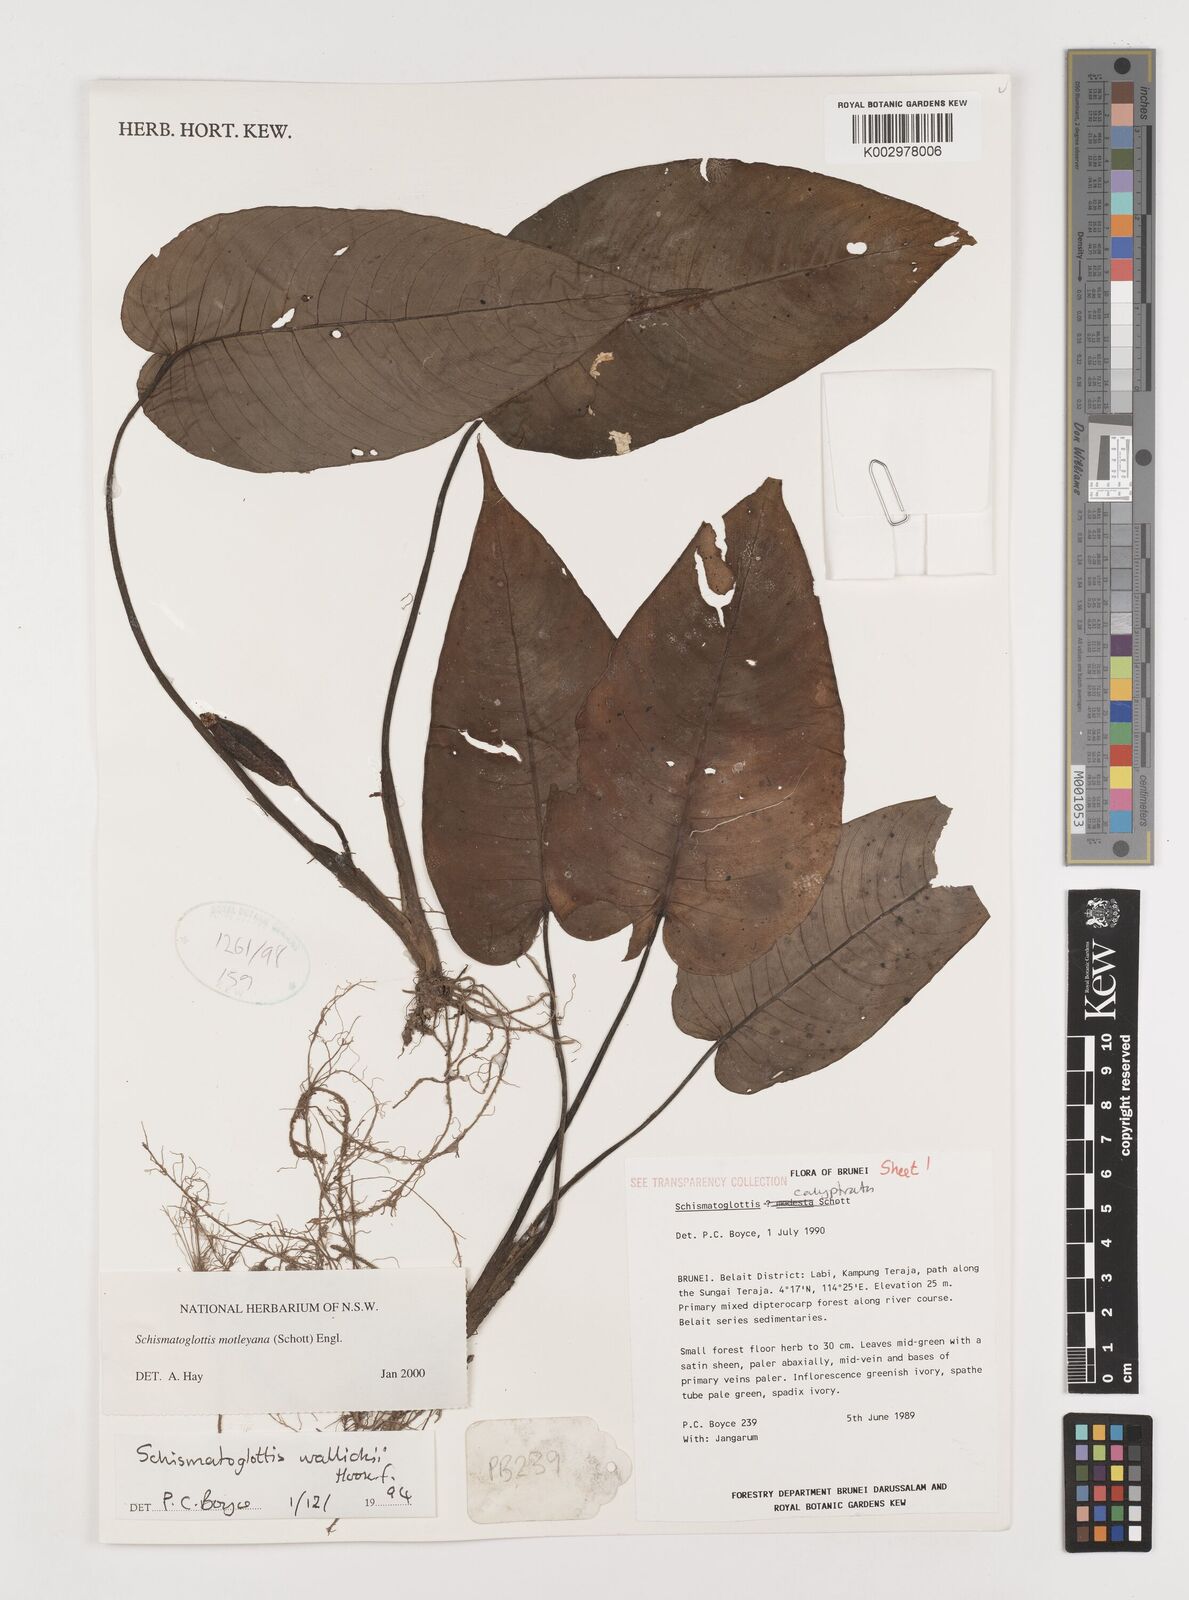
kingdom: Plantae
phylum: Tracheophyta
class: Liliopsida
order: Alismatales
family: Araceae
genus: Schismatoglottis
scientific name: Schismatoglottis motleyana
